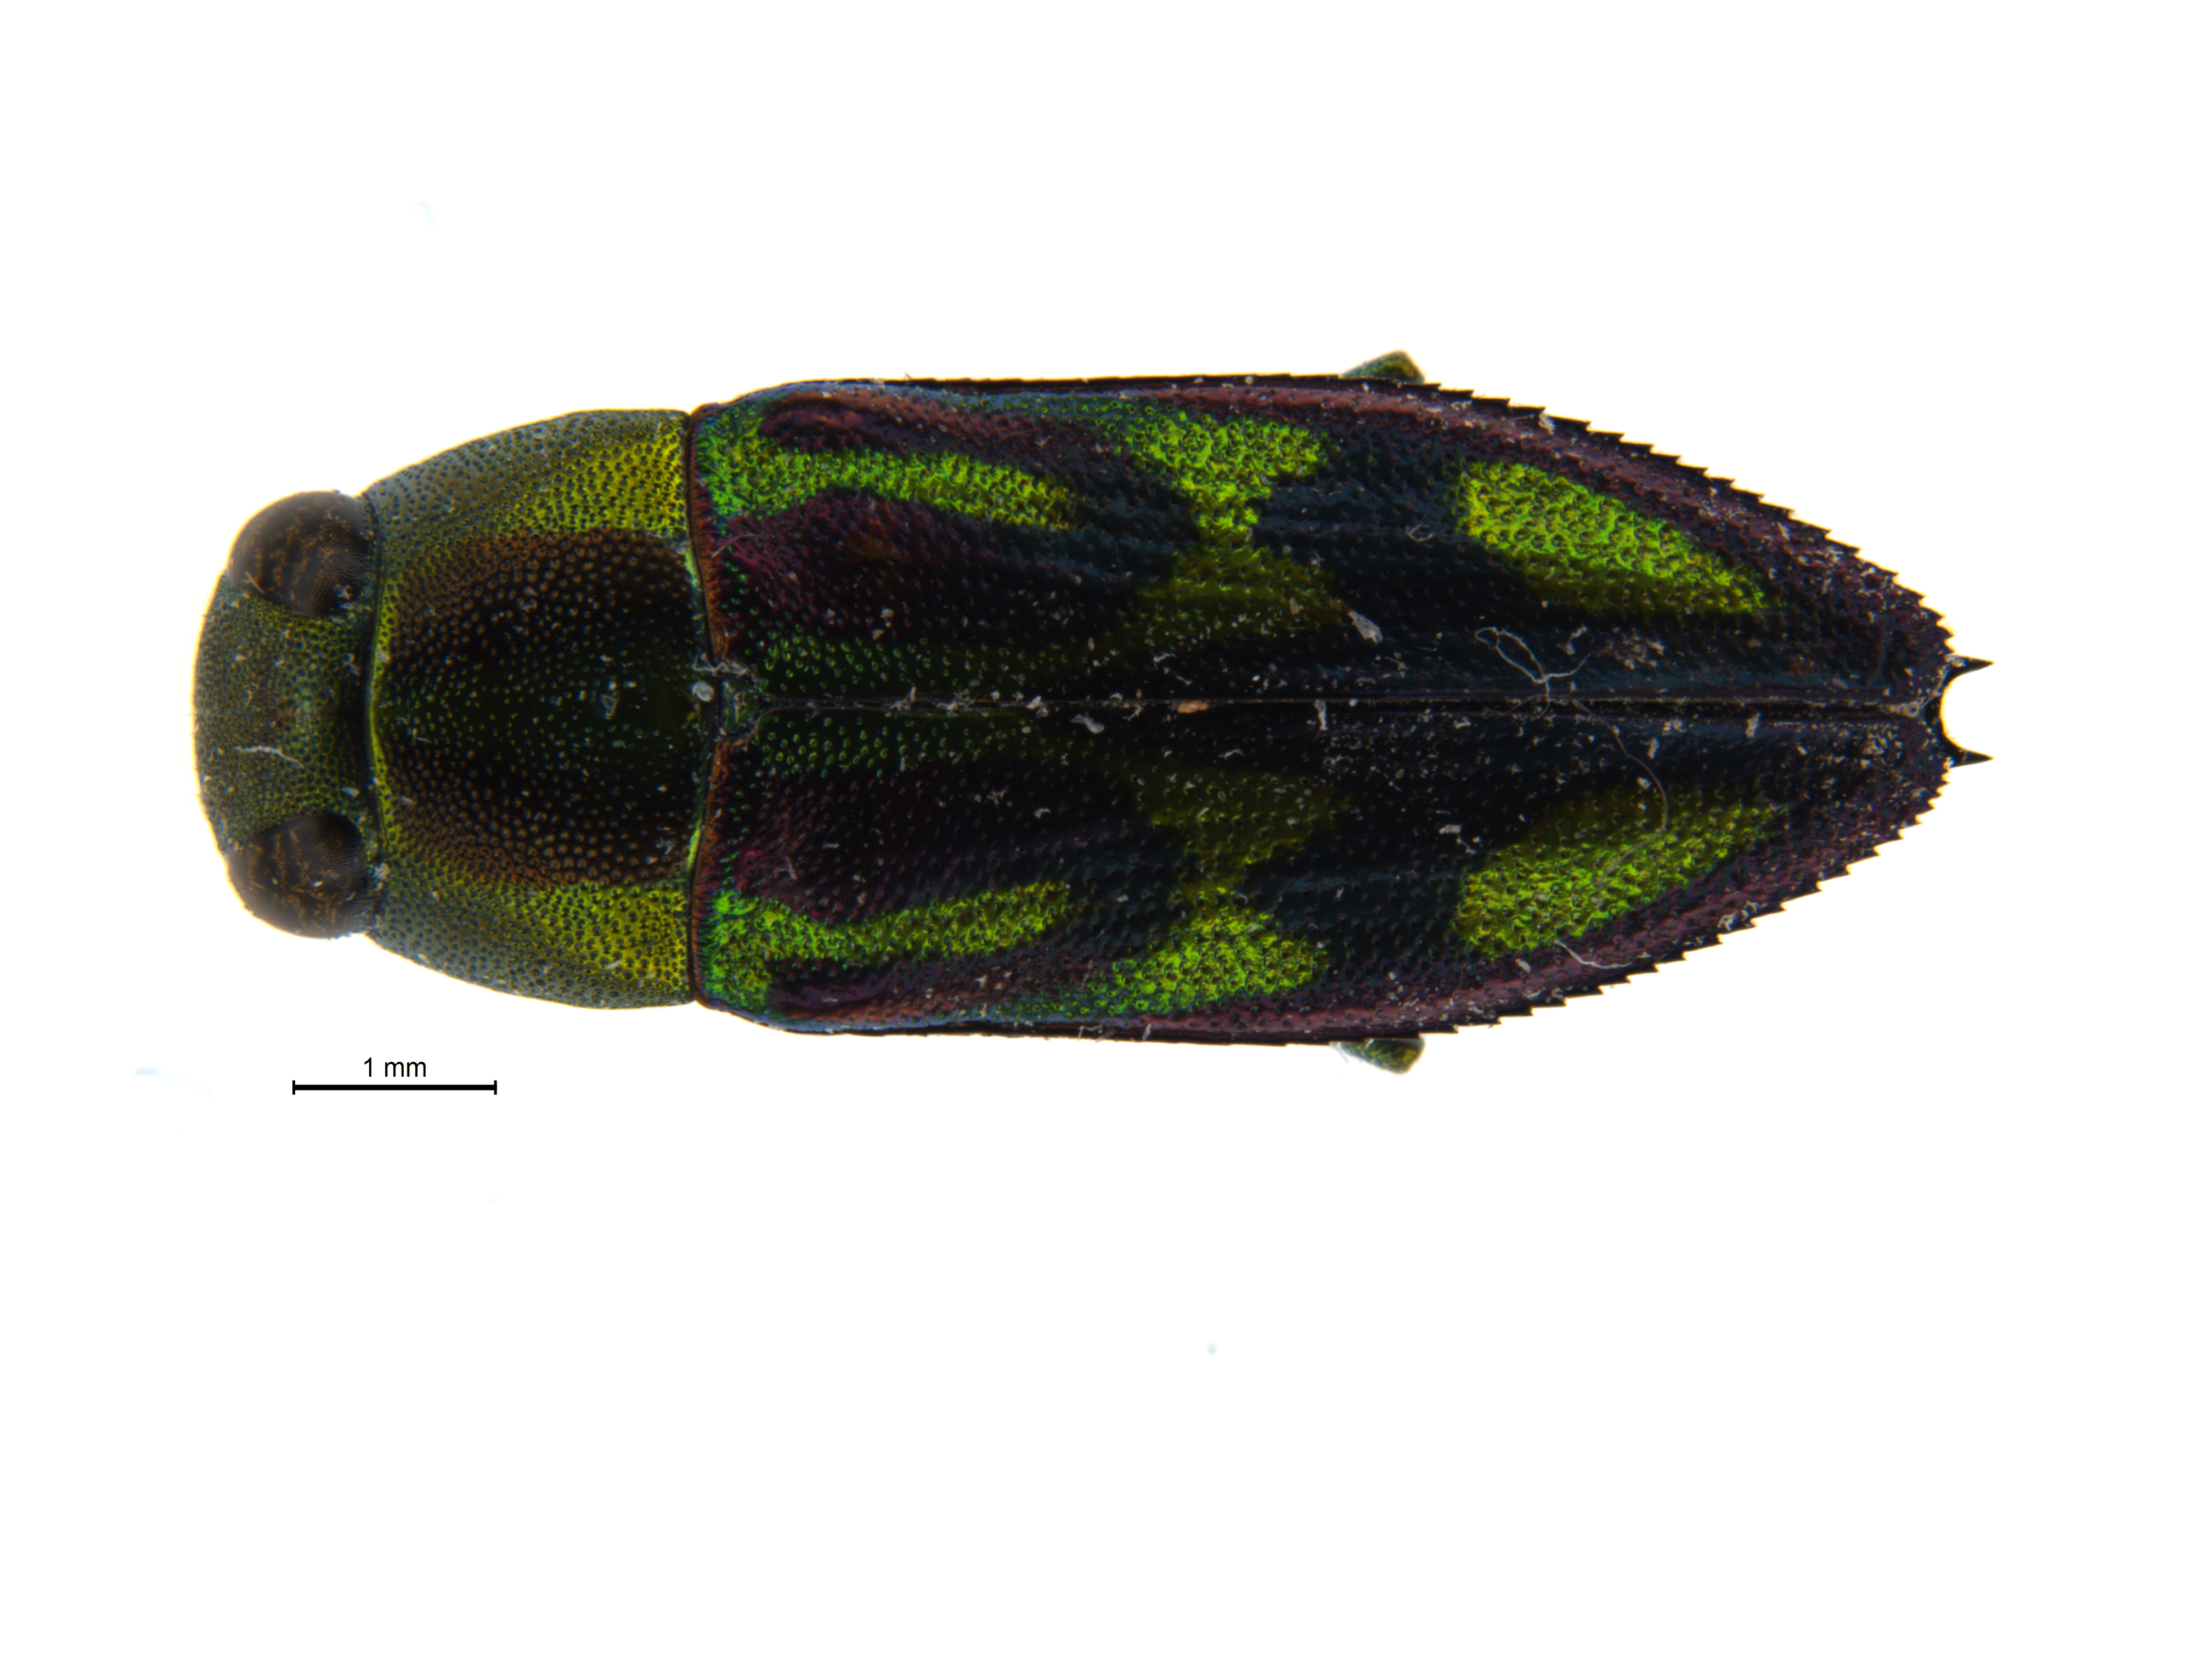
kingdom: Animalia
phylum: Arthropoda
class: Insecta
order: Coleoptera
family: Buprestidae
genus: Melobasis
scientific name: Melobasis
